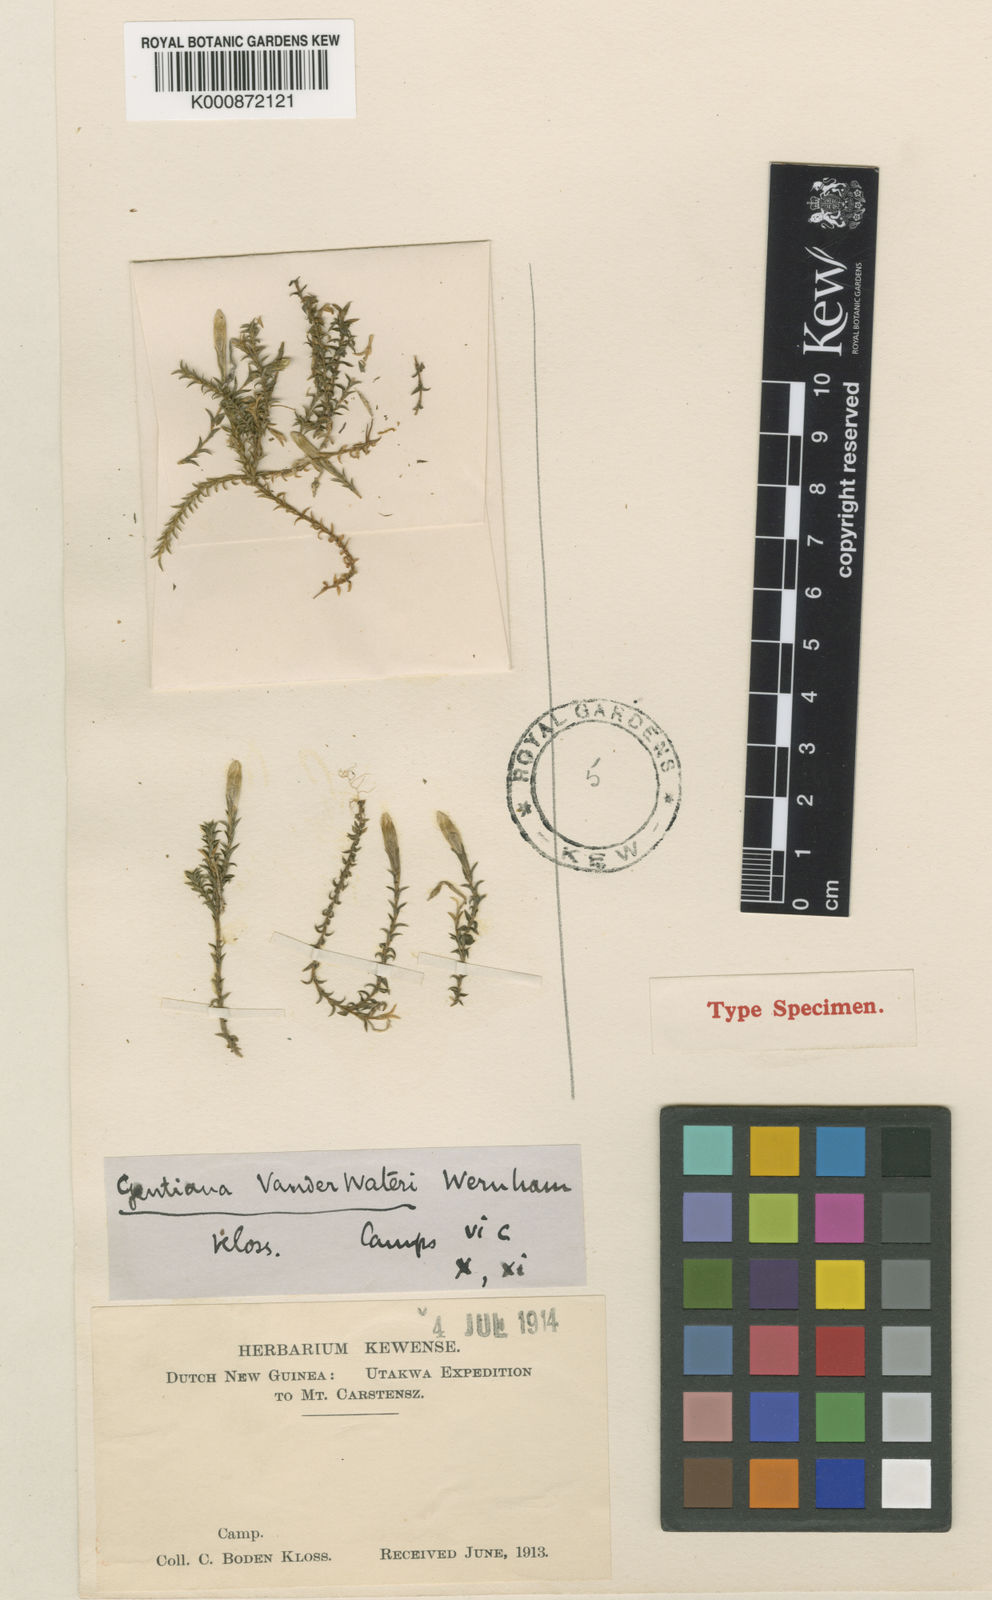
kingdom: Plantae
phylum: Tracheophyta
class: Magnoliopsida
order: Gentianales
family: Gentianaceae
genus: Gentiana
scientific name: Gentiana vandewateri
